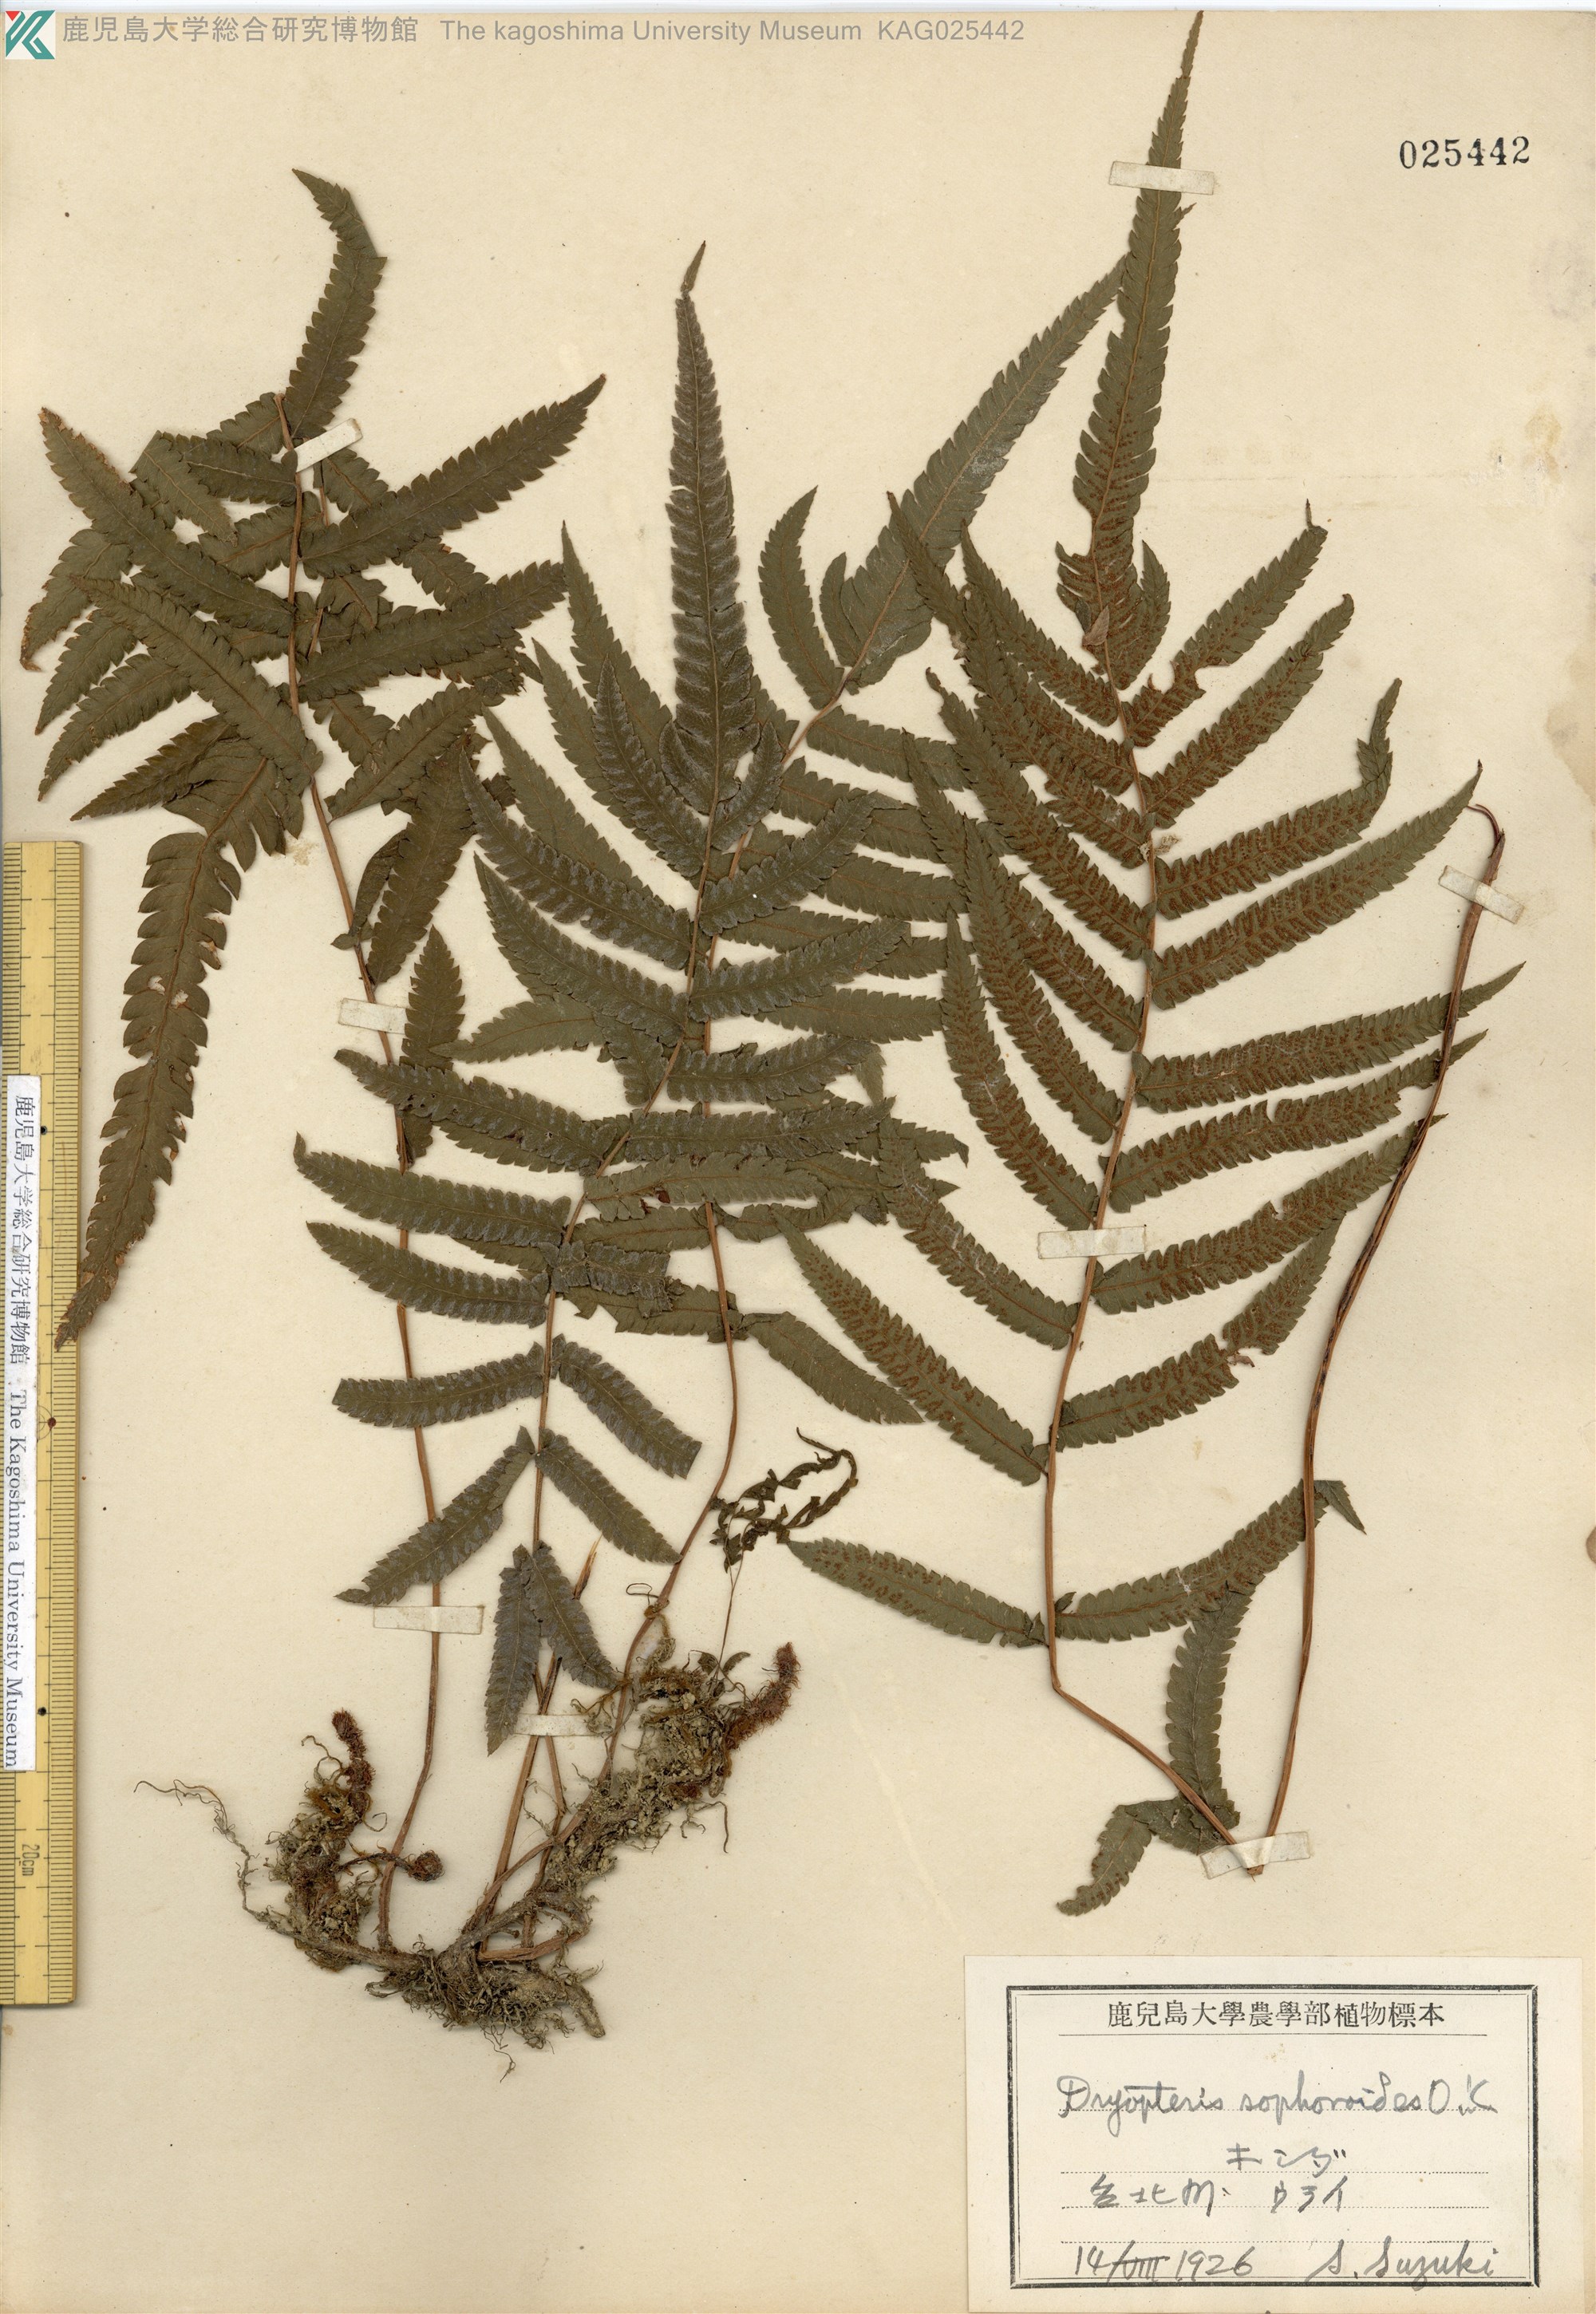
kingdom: Plantae
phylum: Tracheophyta
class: Polypodiopsida
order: Polypodiales
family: Thelypteridaceae
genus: Christella
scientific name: Christella acuminata
